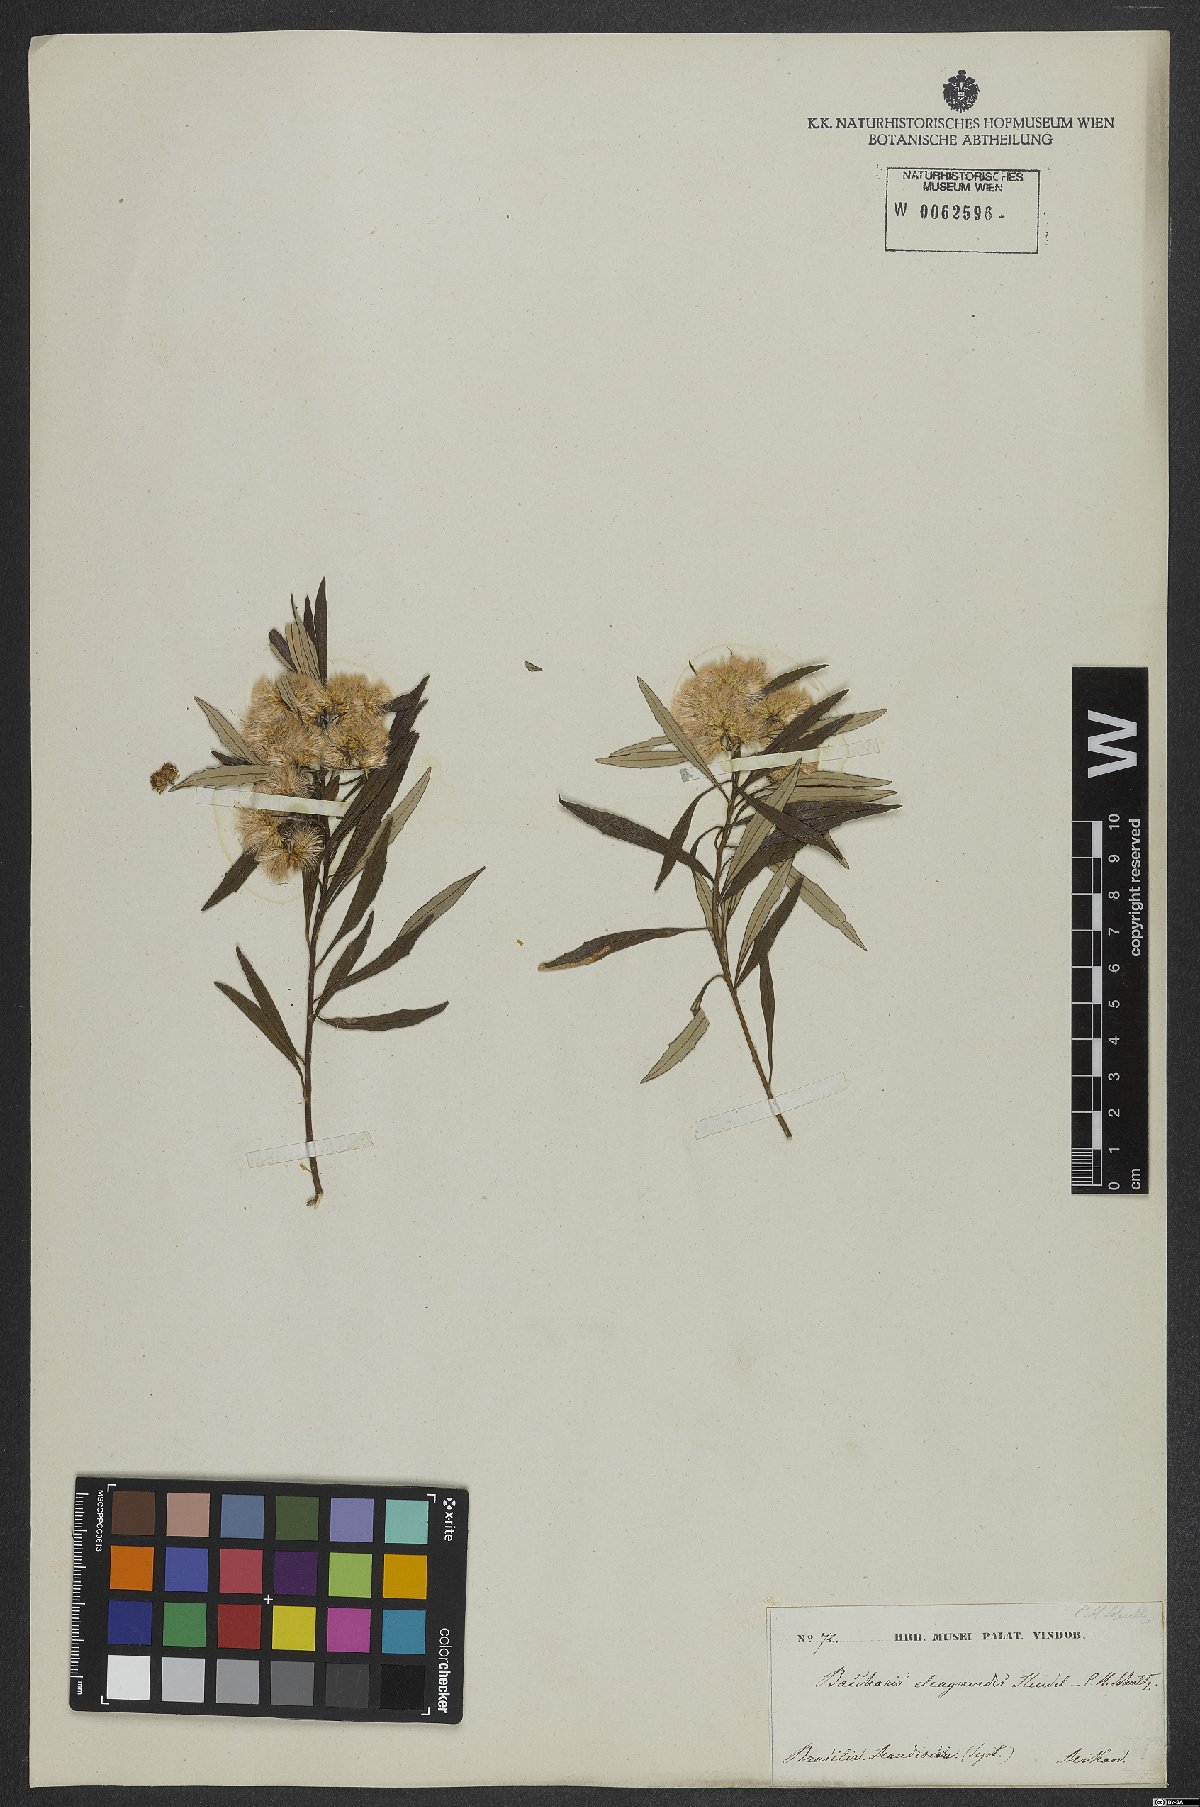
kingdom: Plantae
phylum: Tracheophyta
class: Magnoliopsida
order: Asterales
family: Asteraceae
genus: Baccharis
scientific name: Baccharis montana
